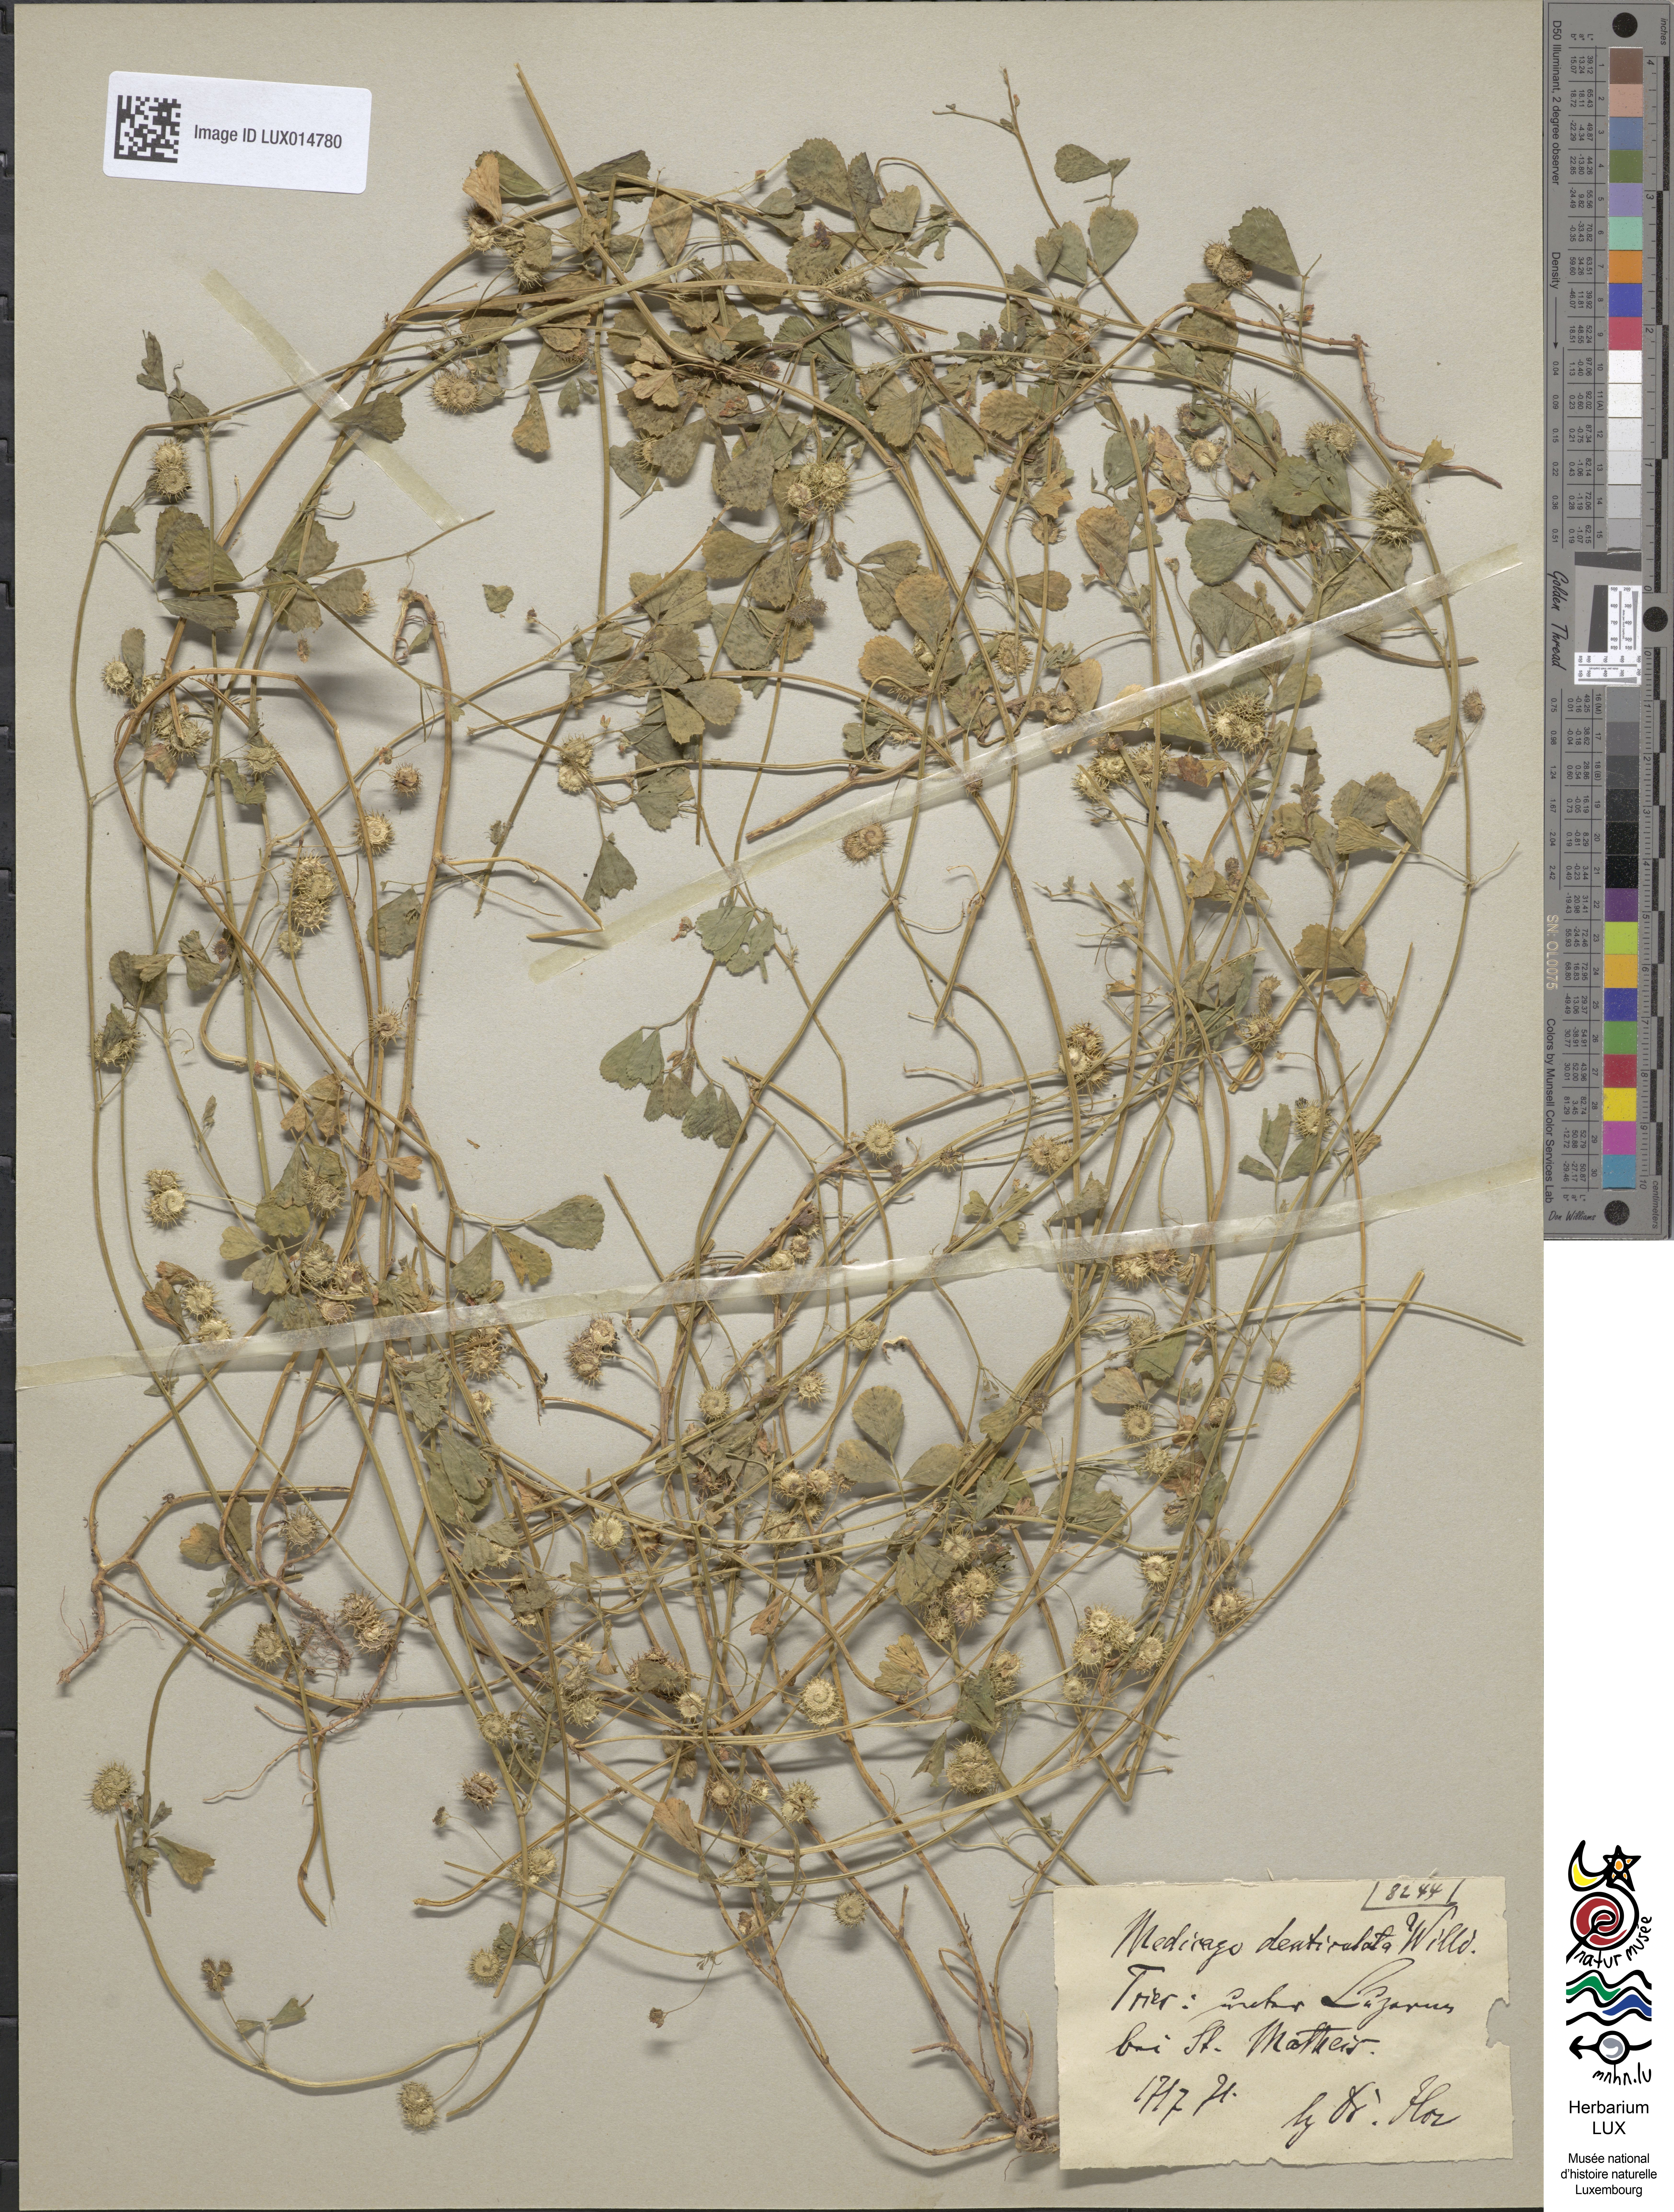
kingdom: Plantae
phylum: Tracheophyta
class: Magnoliopsida
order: Fabales
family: Fabaceae
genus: Medicago
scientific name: Medicago polymorpha
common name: Burclover
